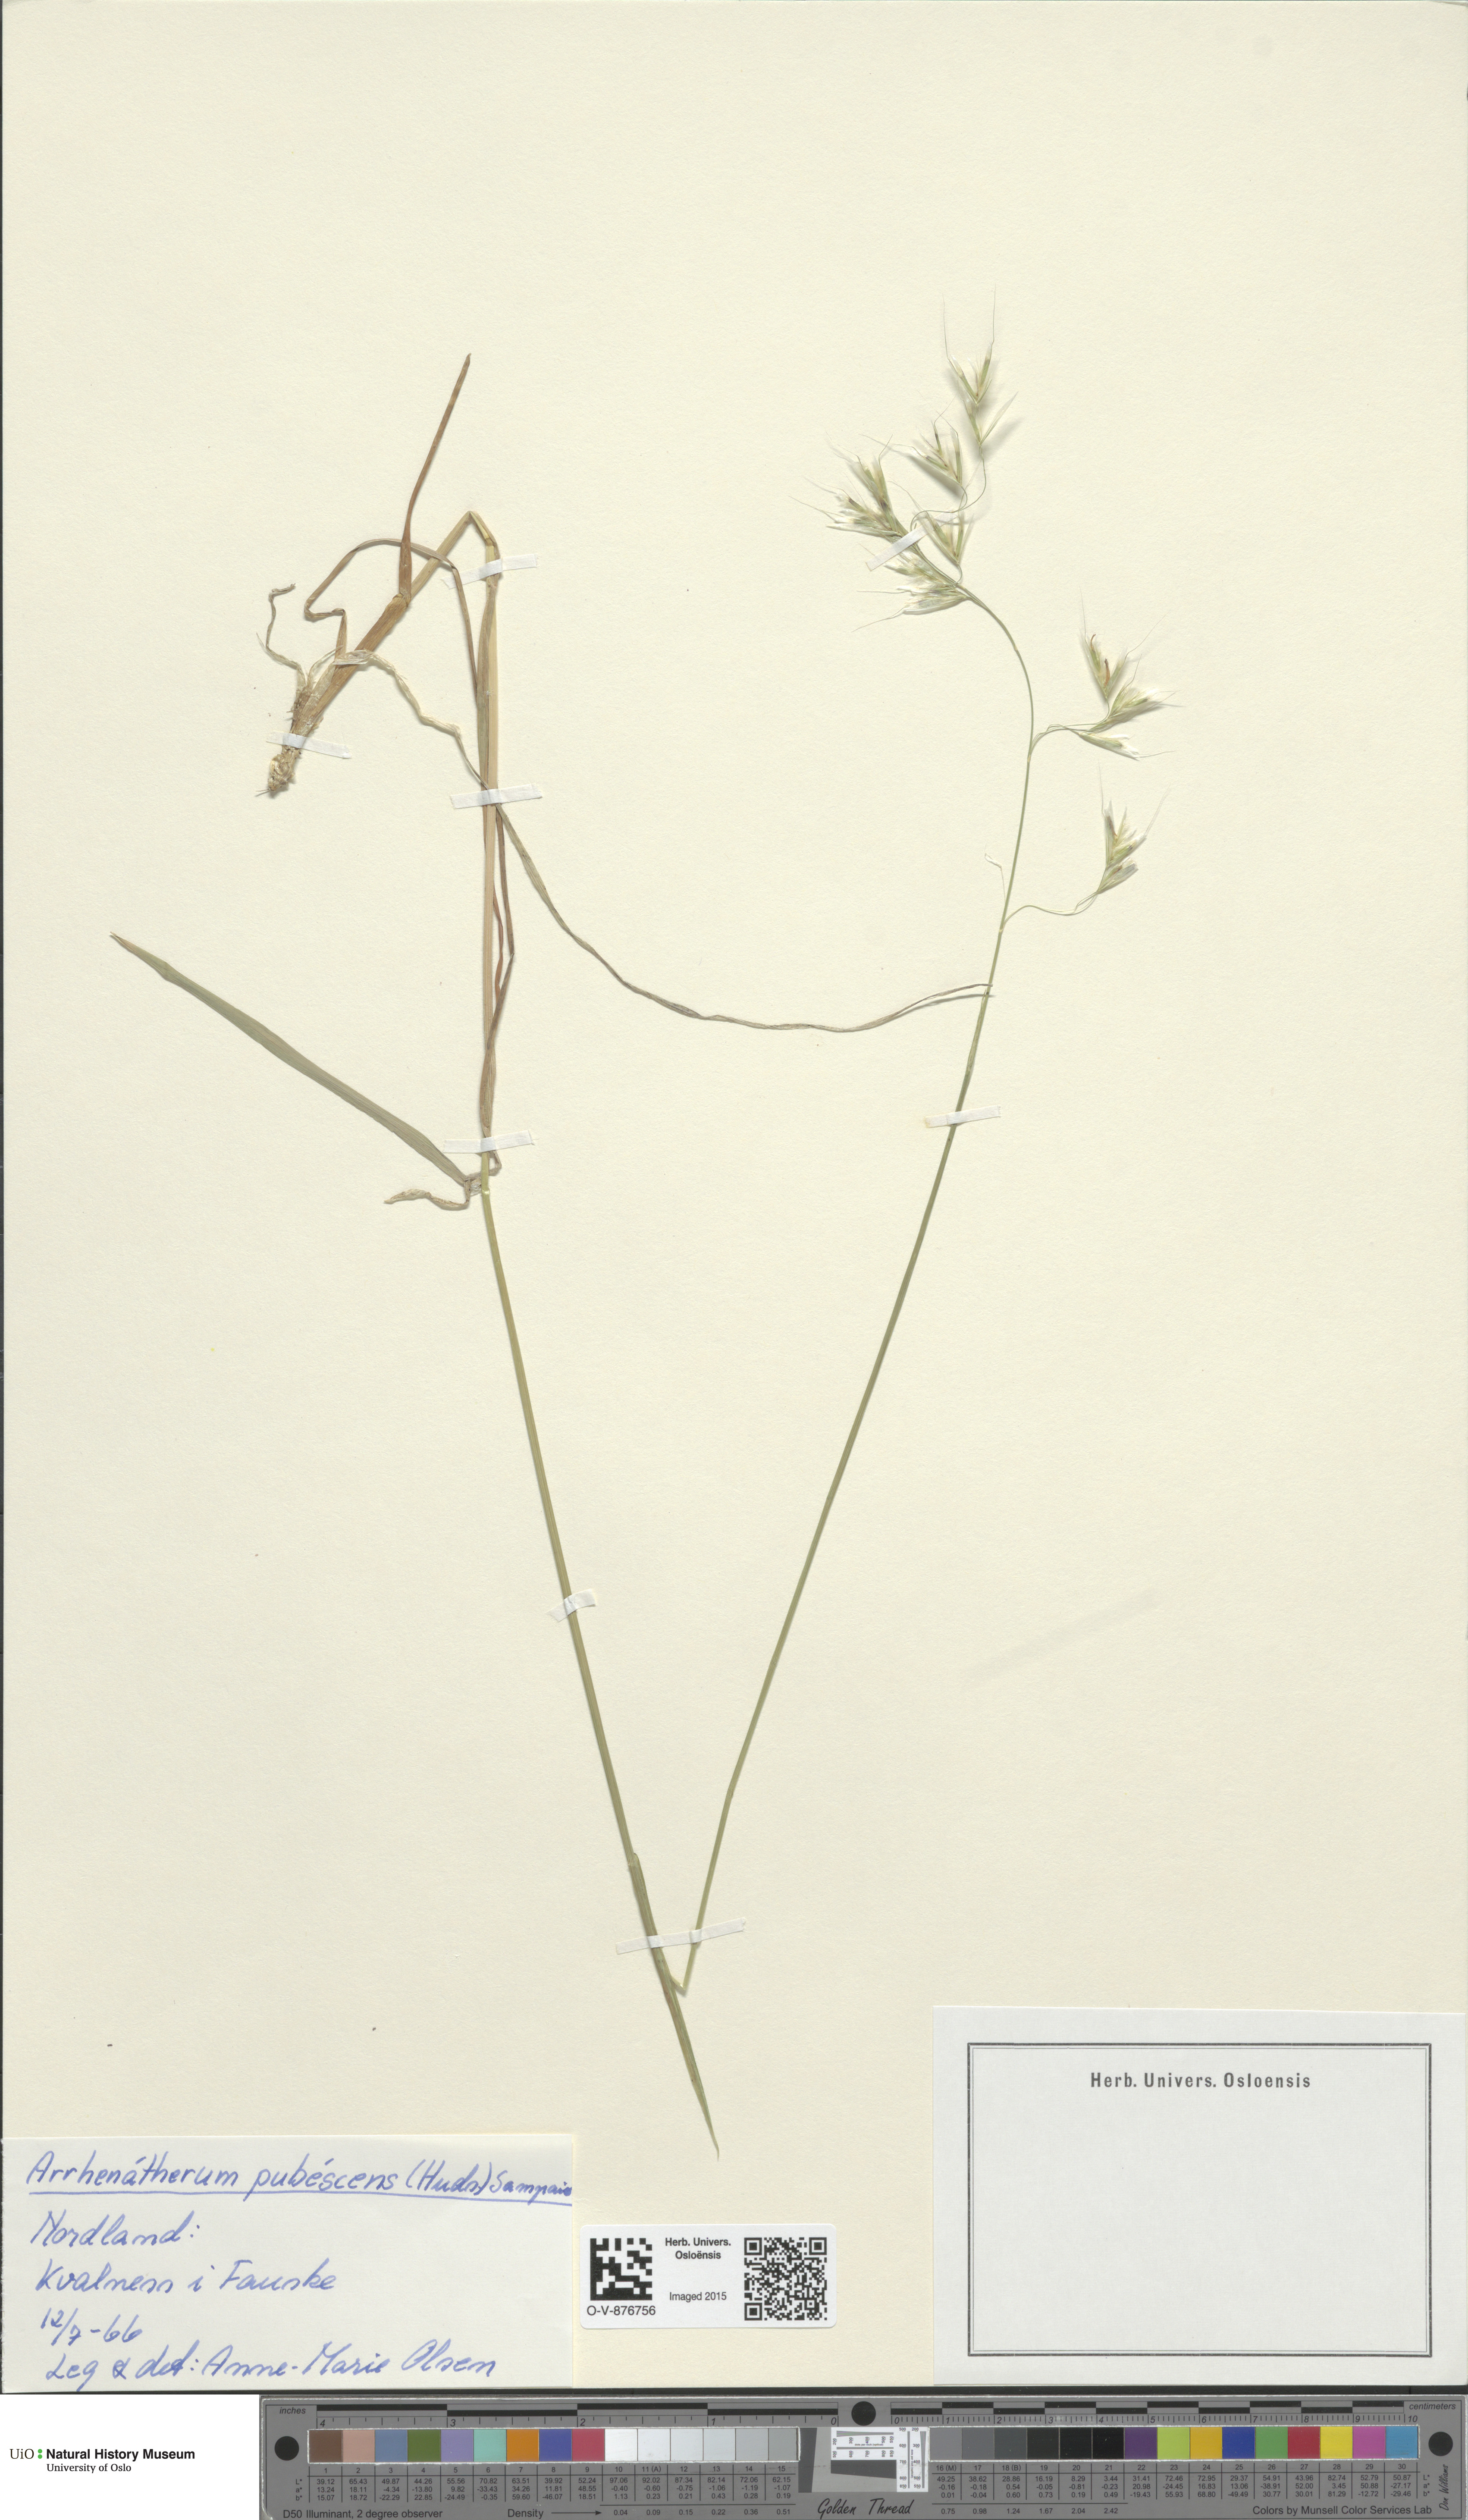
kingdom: Plantae
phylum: Tracheophyta
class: Liliopsida
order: Poales
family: Poaceae
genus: Avenula
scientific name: Avenula pubescens
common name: Downy alpine oatgrass
